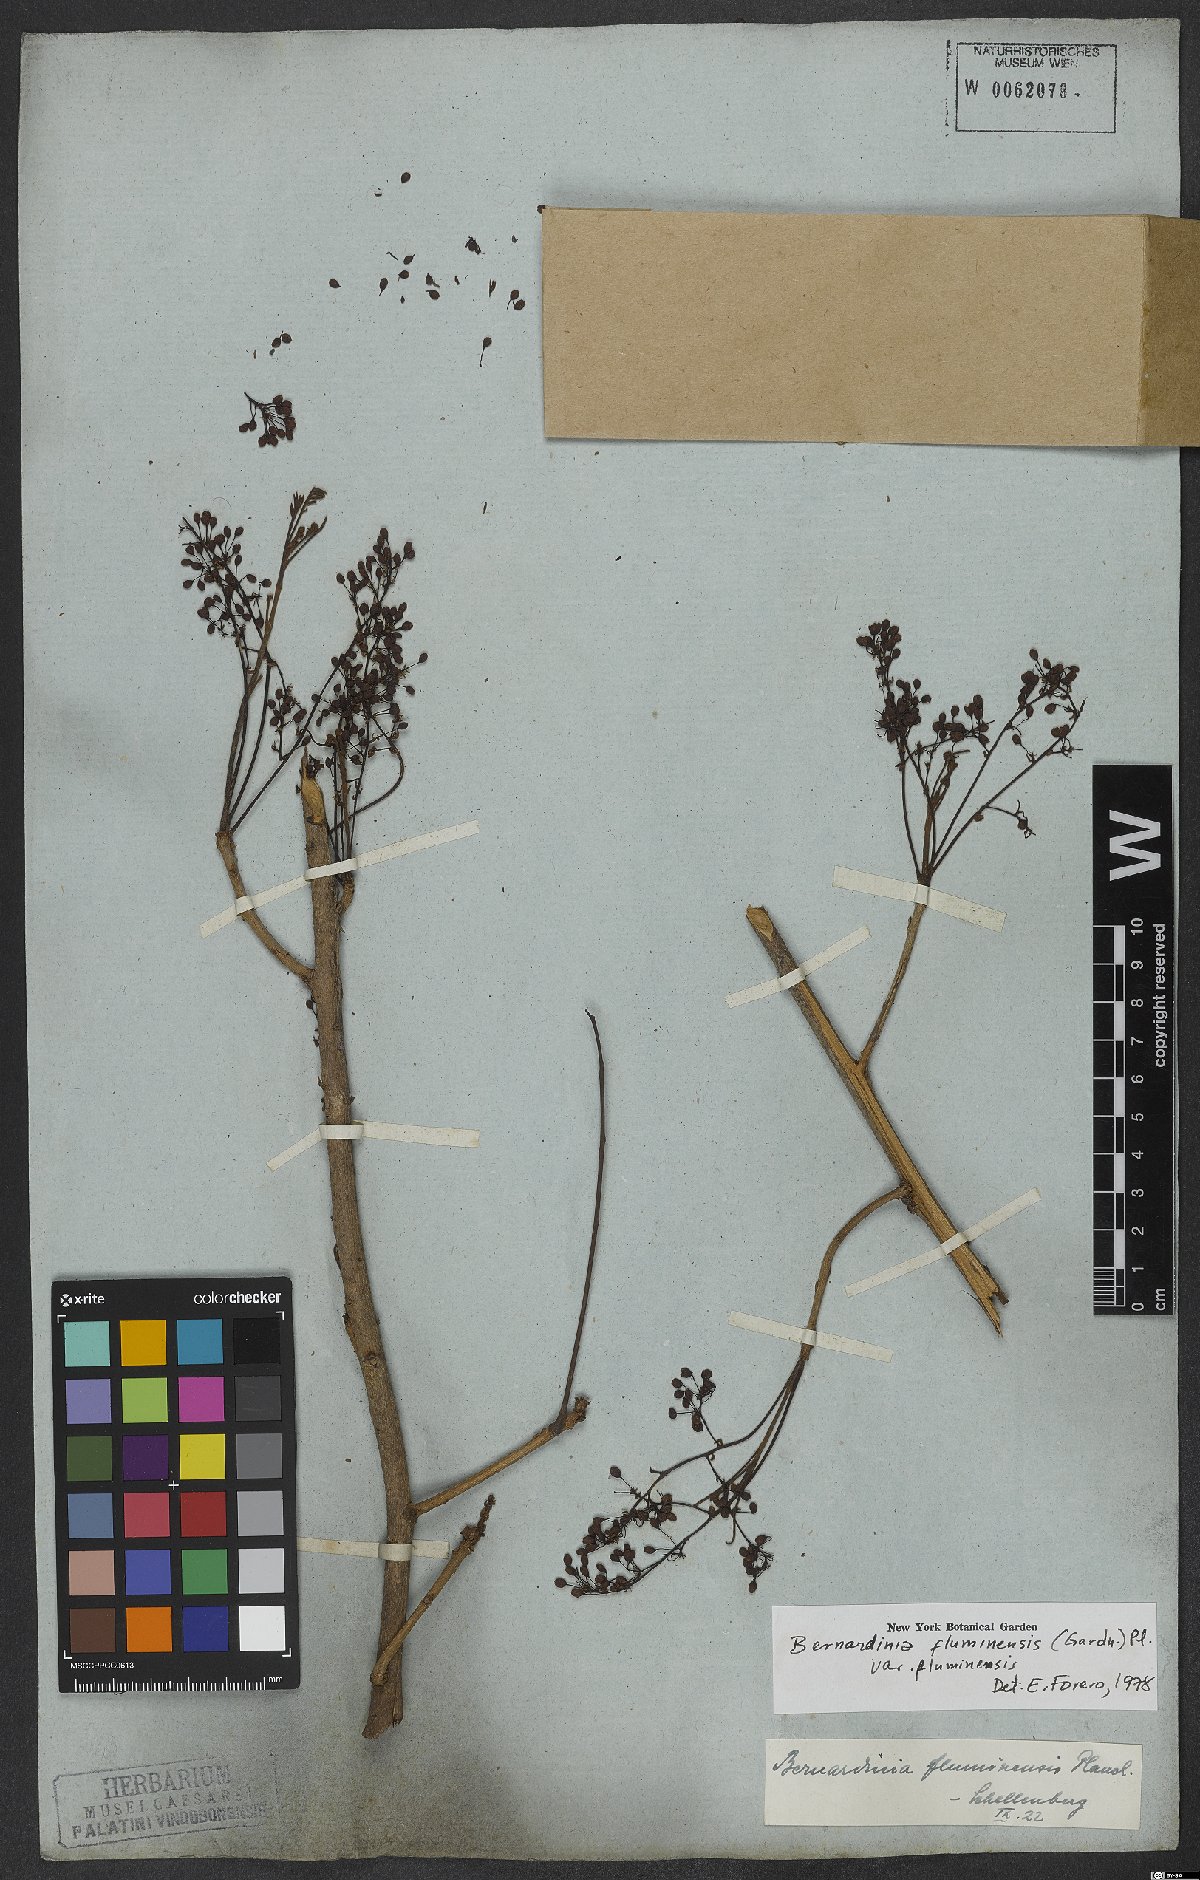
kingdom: Plantae
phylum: Tracheophyta
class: Magnoliopsida
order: Oxalidales
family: Connaraceae
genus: Rourea
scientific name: Rourea fluminensis
